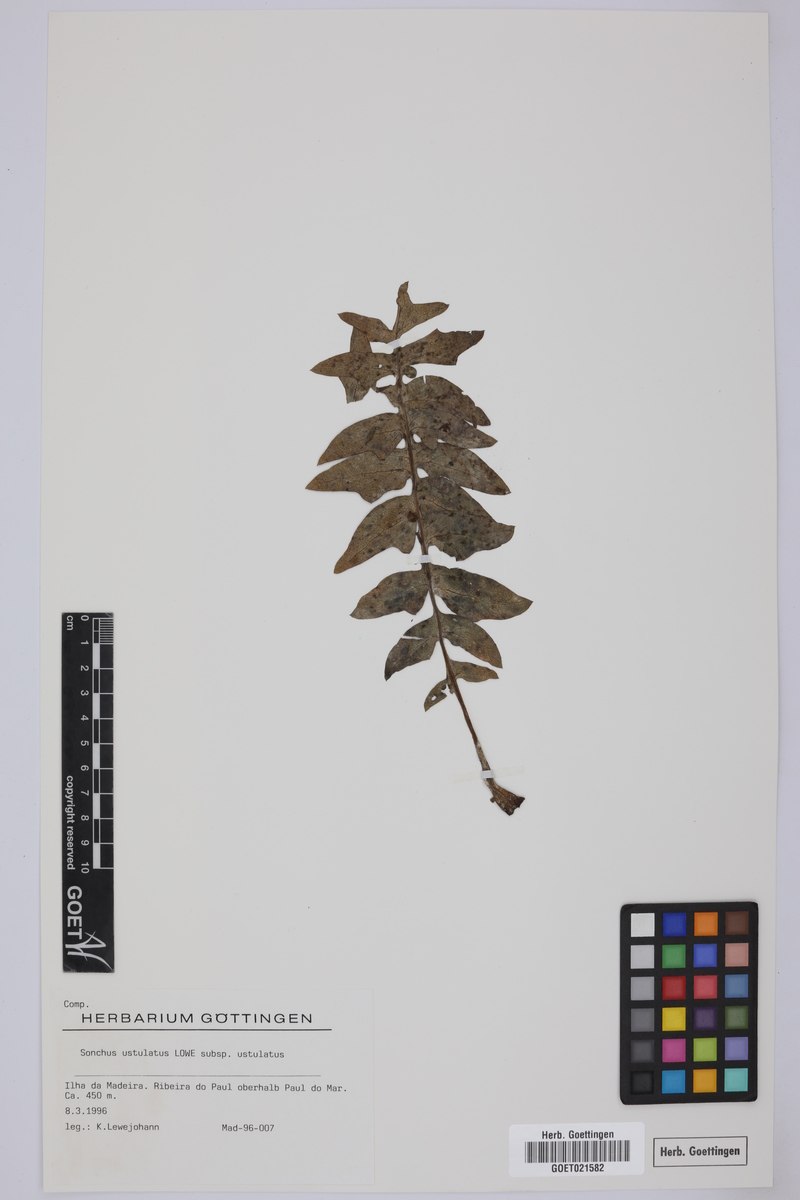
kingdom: Plantae
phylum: Tracheophyta
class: Magnoliopsida
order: Asterales
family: Asteraceae
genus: Sonchus
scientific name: Sonchus ustulatus
